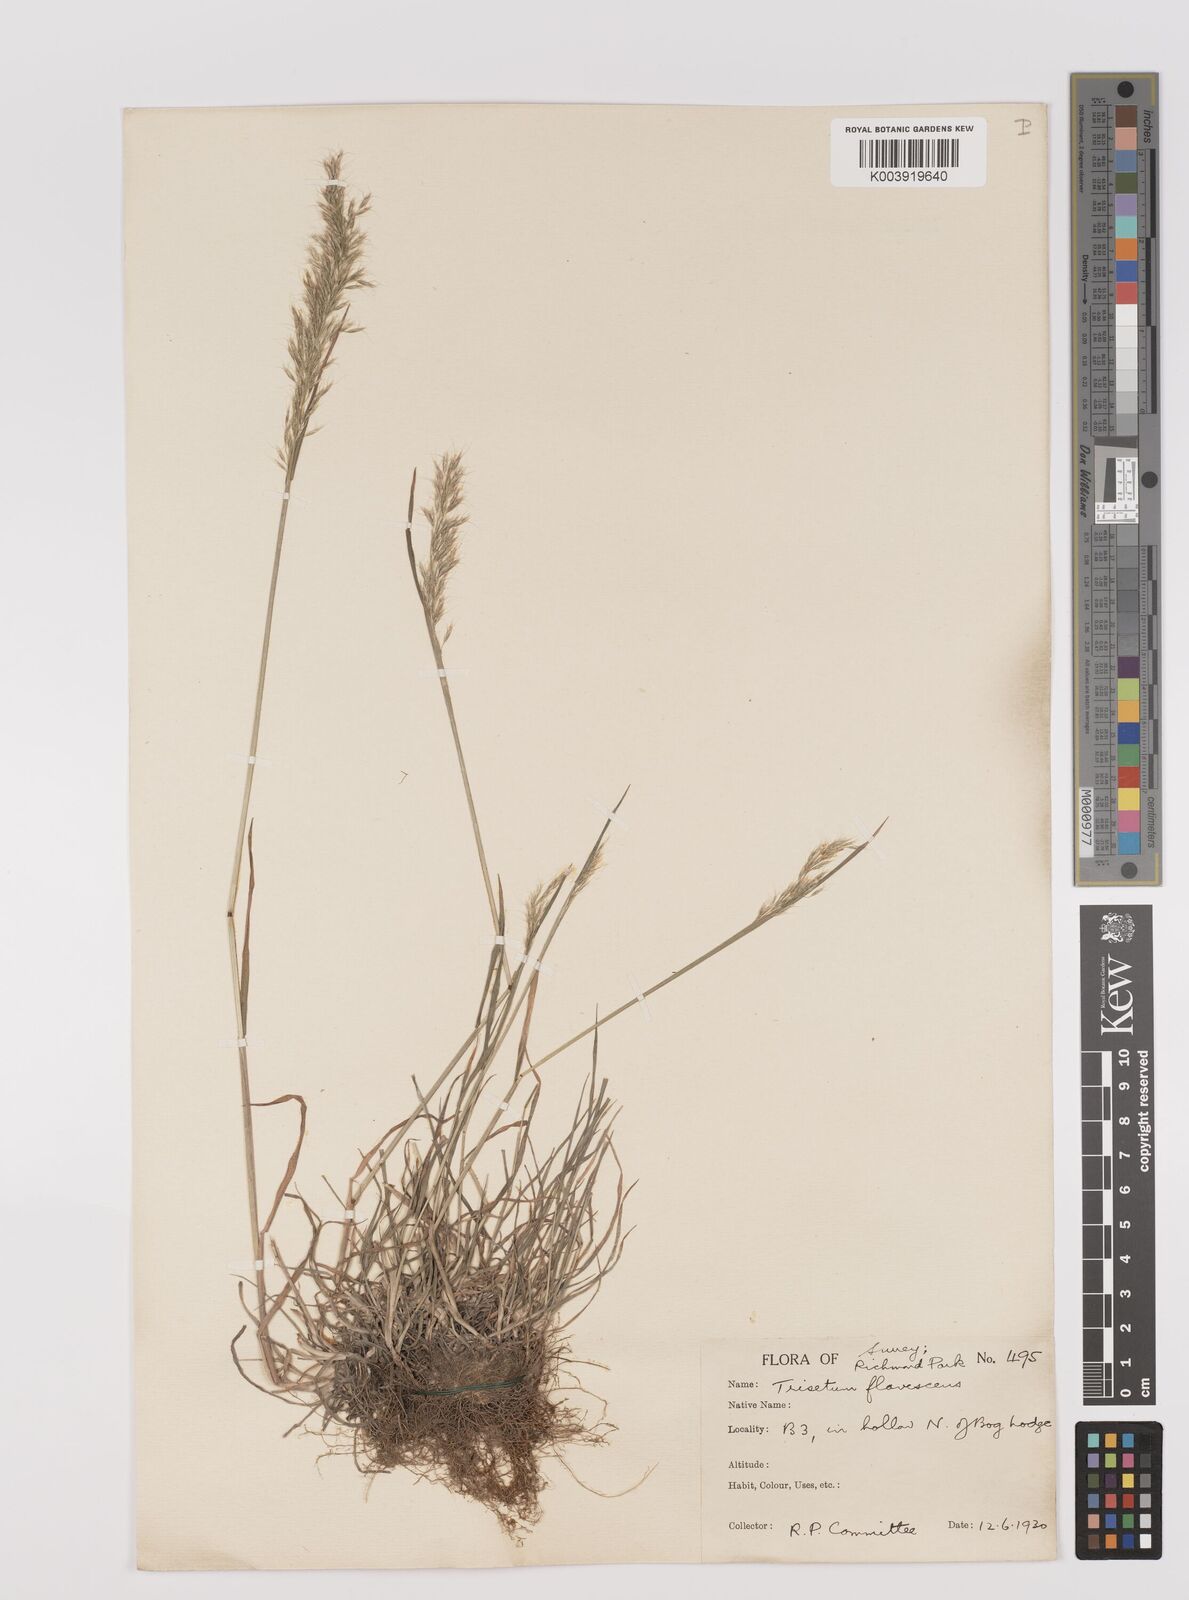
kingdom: Plantae
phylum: Tracheophyta
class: Liliopsida
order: Poales
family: Poaceae
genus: Trisetum
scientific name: Trisetum flavescens
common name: Yellow oat-grass
